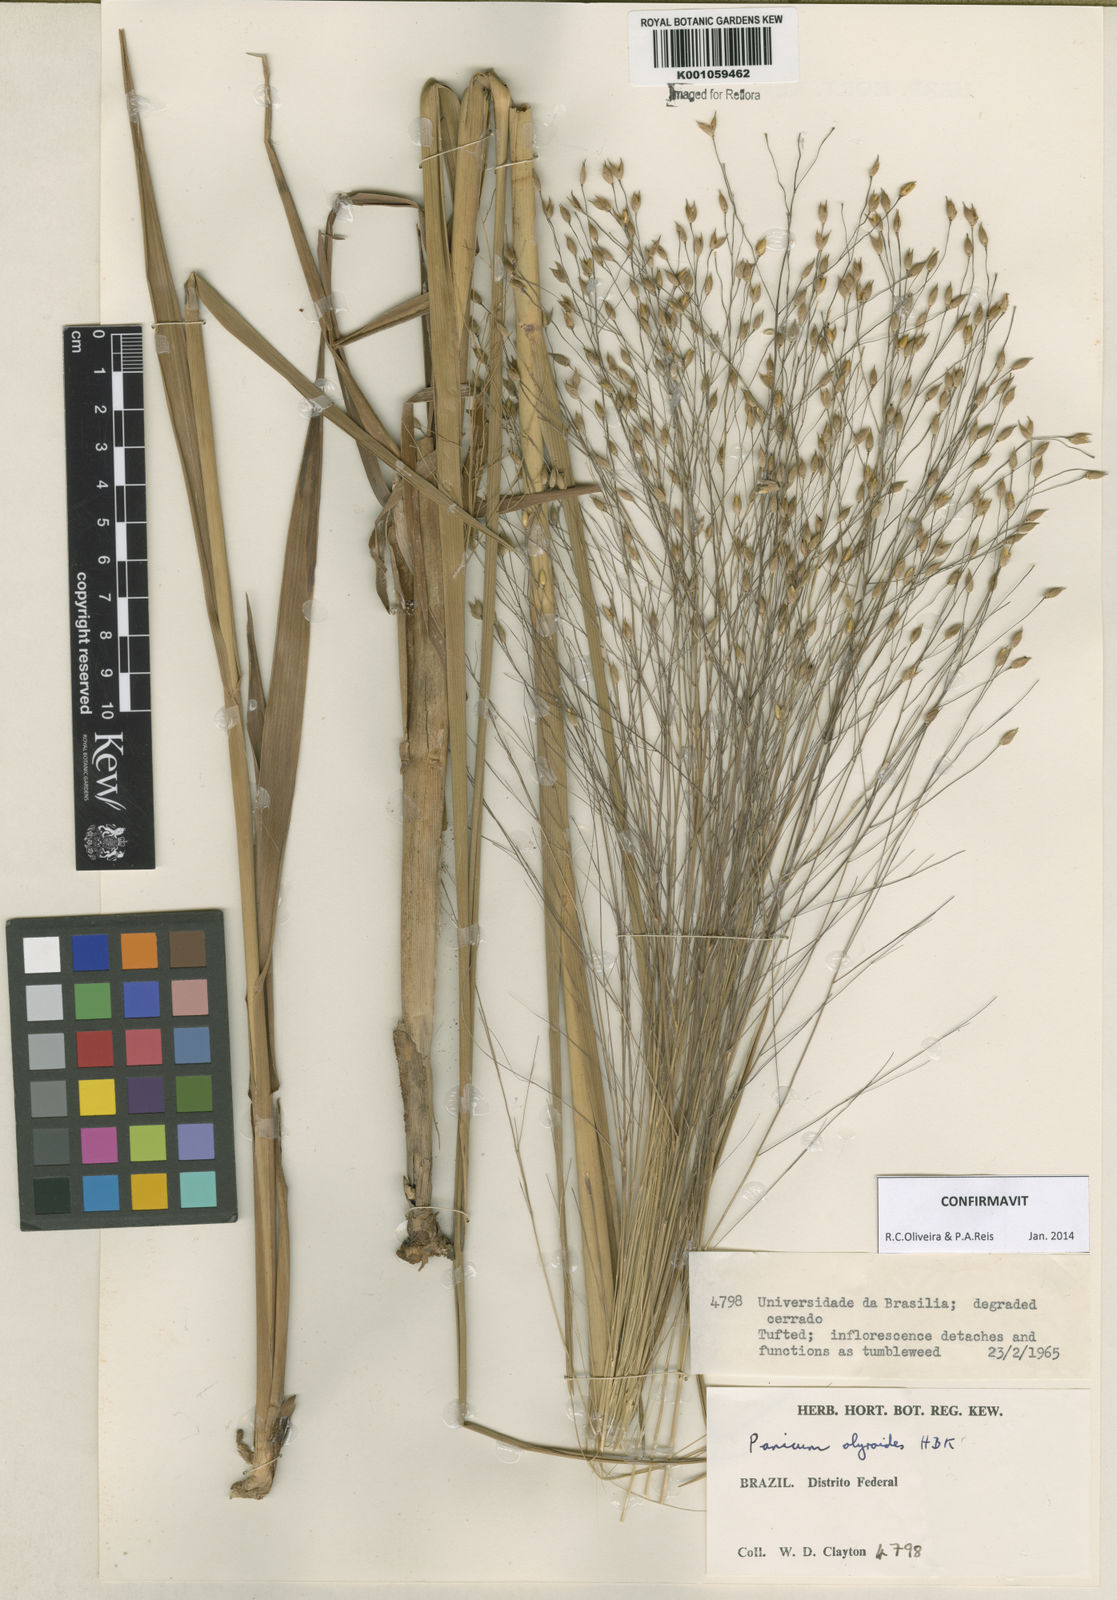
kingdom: Plantae
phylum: Tracheophyta
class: Liliopsida
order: Poales
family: Poaceae
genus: Panicum
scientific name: Panicum olyroides
